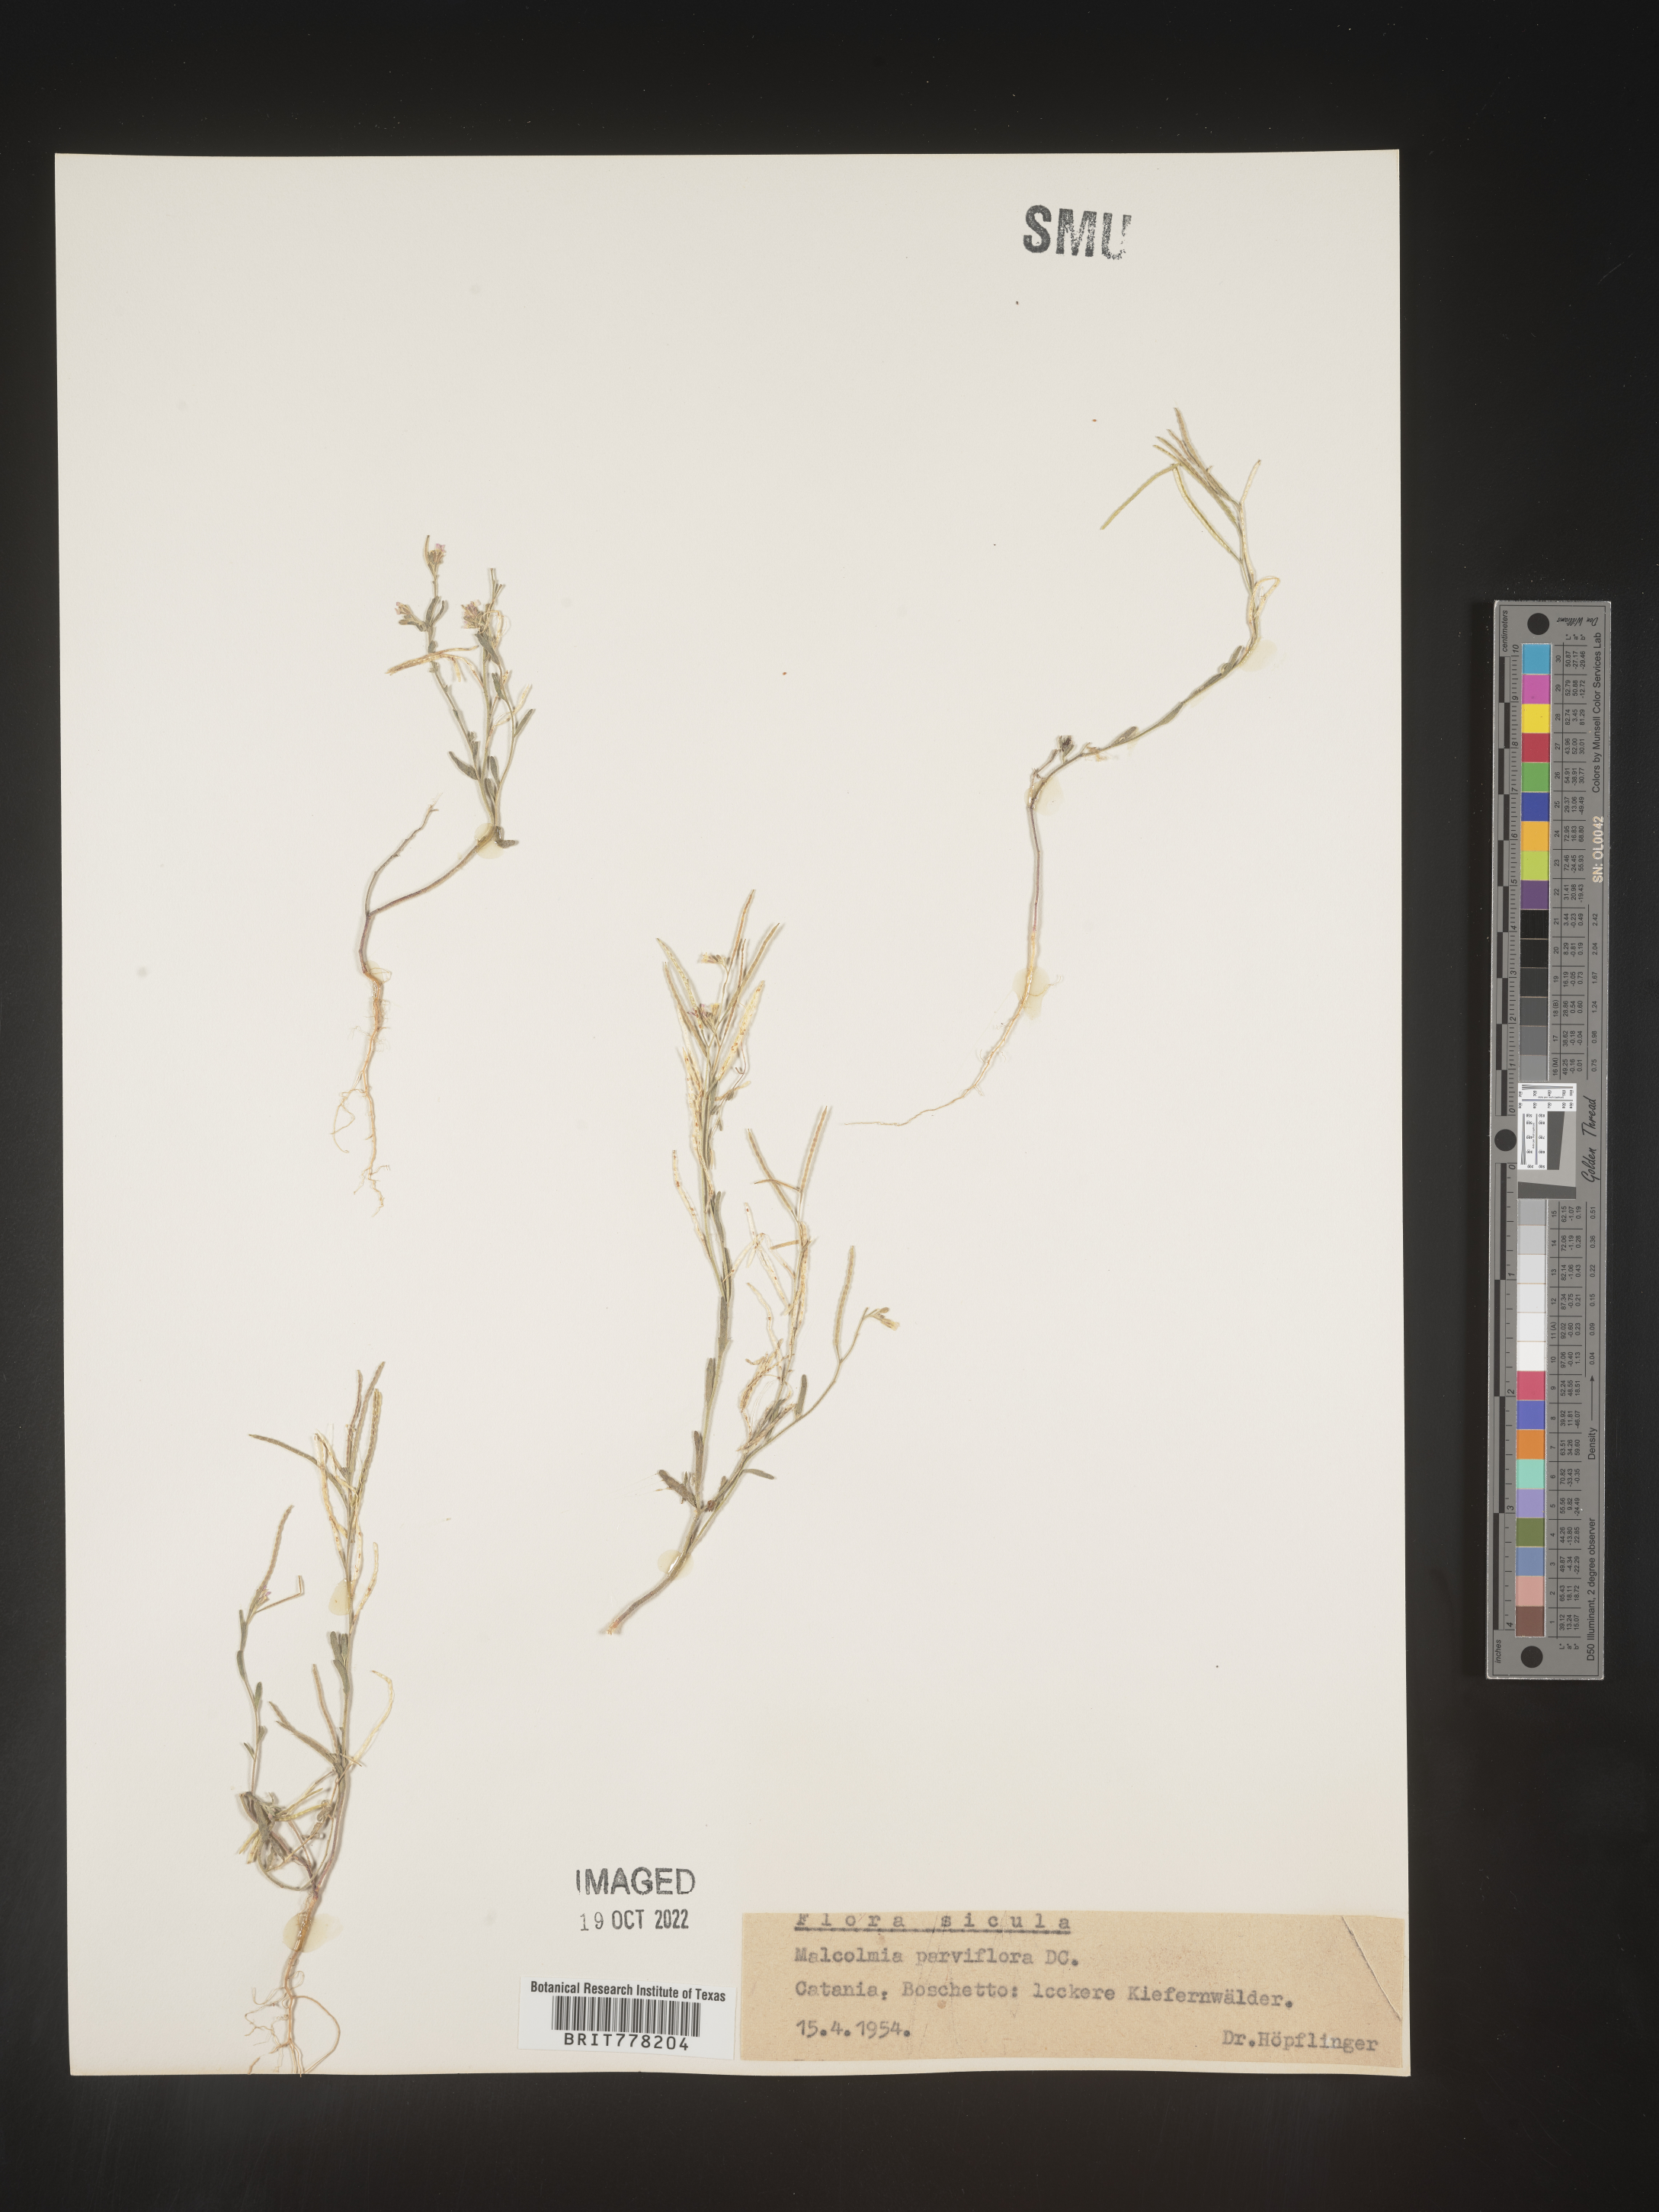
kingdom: Plantae
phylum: Tracheophyta
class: Magnoliopsida
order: Brassicales
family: Brassicaceae
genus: Malcolmia
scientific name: Malcolmia
